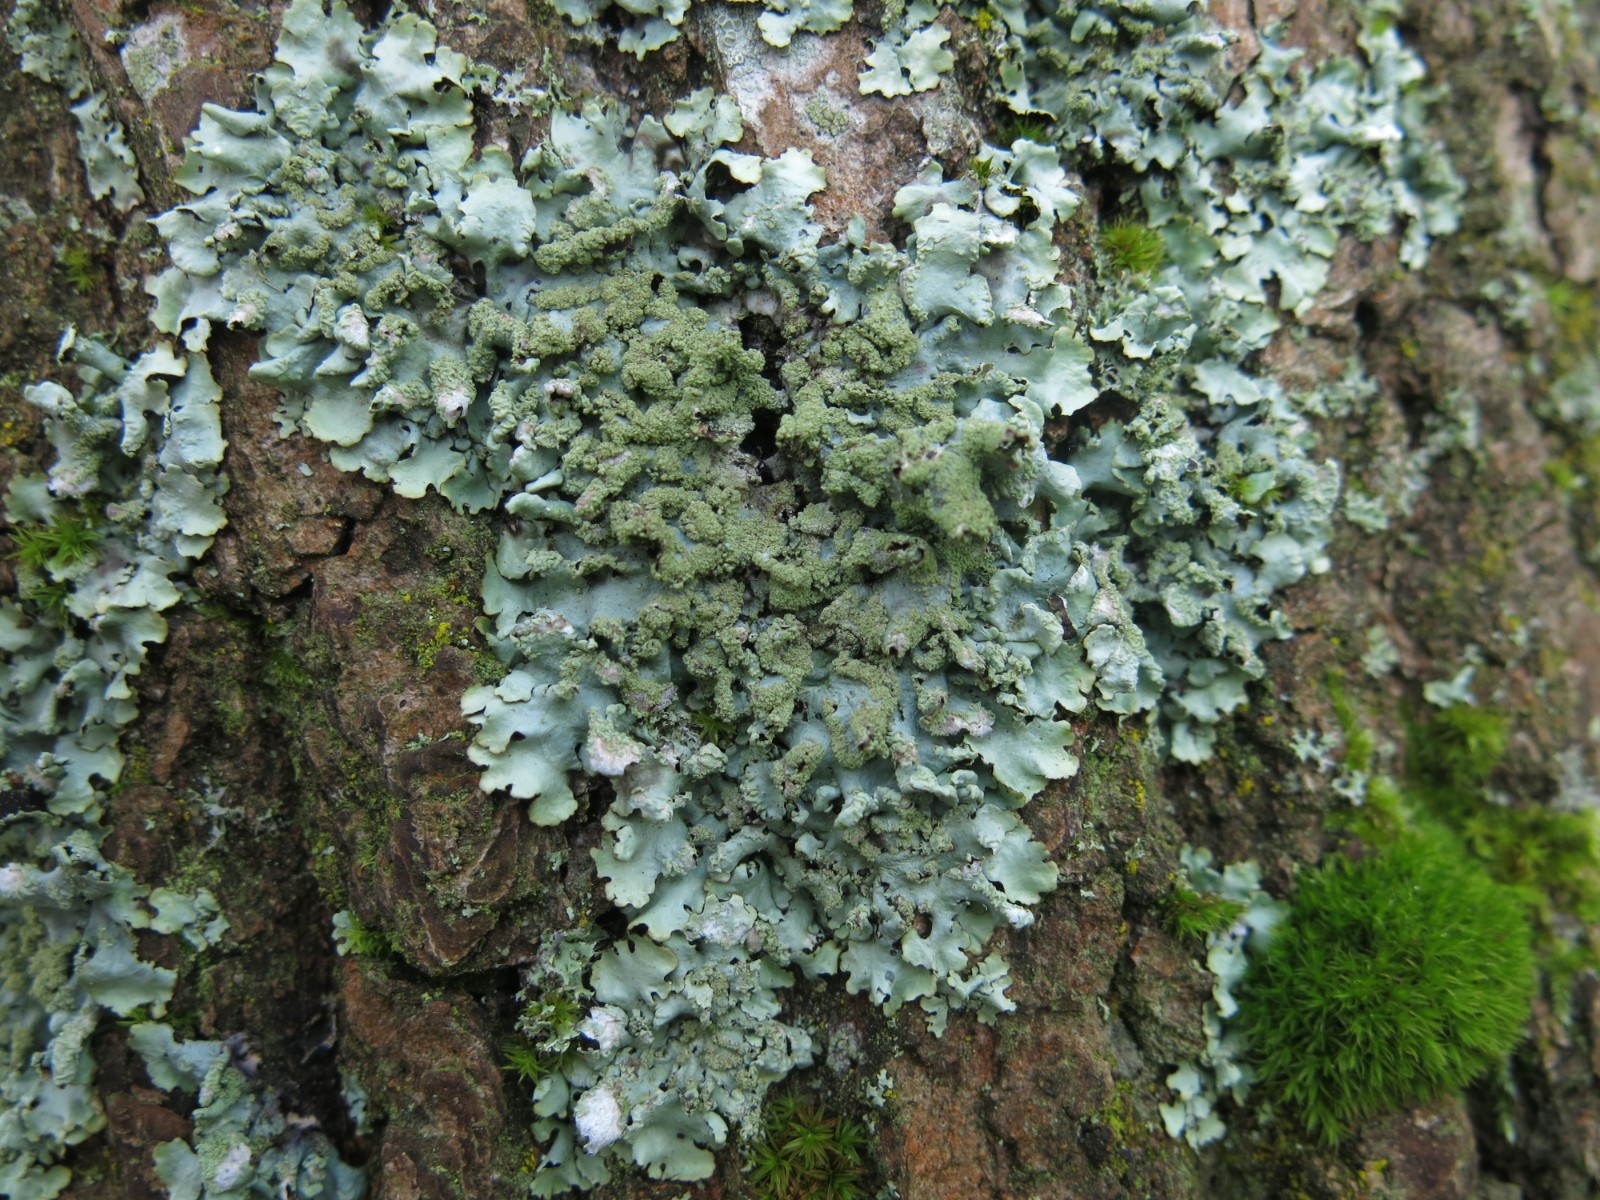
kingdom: Fungi
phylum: Ascomycota
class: Lecanoromycetes
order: Lecanorales
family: Parmeliaceae
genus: Hypotrachyna
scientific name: Hypotrachyna revoluta
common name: bleggrå skållav
